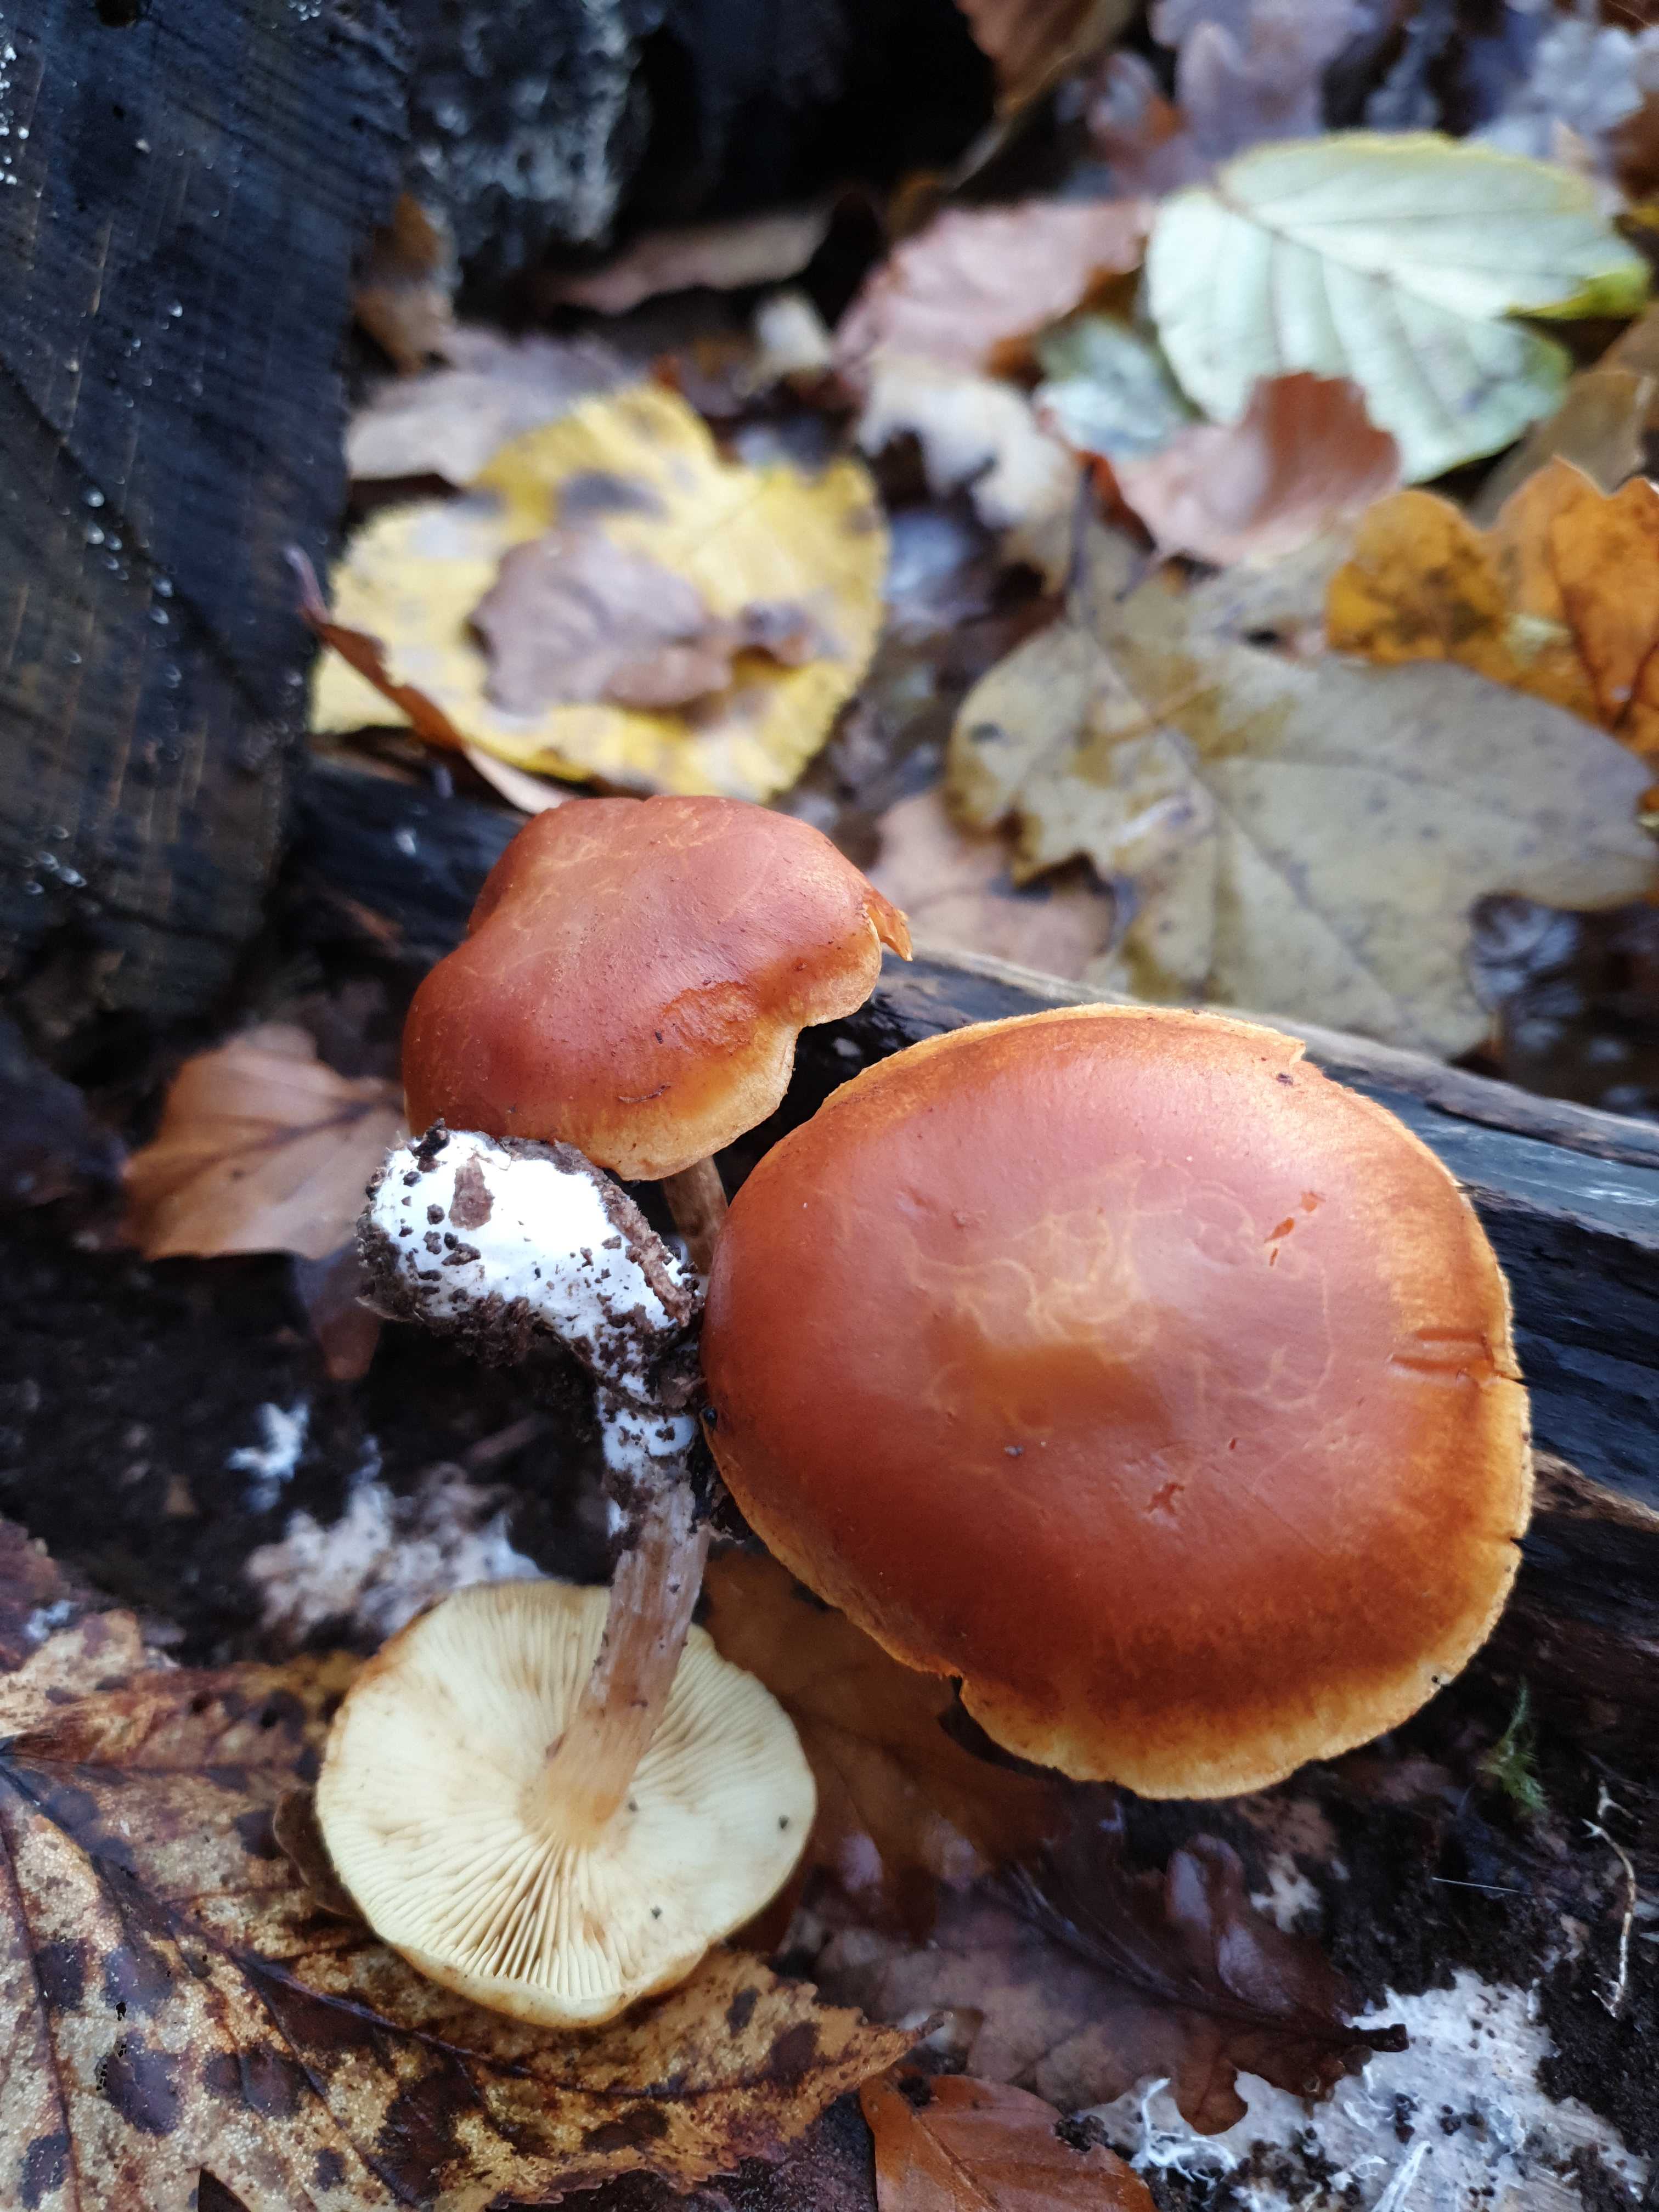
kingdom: Fungi
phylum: Basidiomycota
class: Agaricomycetes
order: Agaricales
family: Hymenogastraceae
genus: Gymnopilus
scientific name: Gymnopilus penetrans
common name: plettet flammehat
